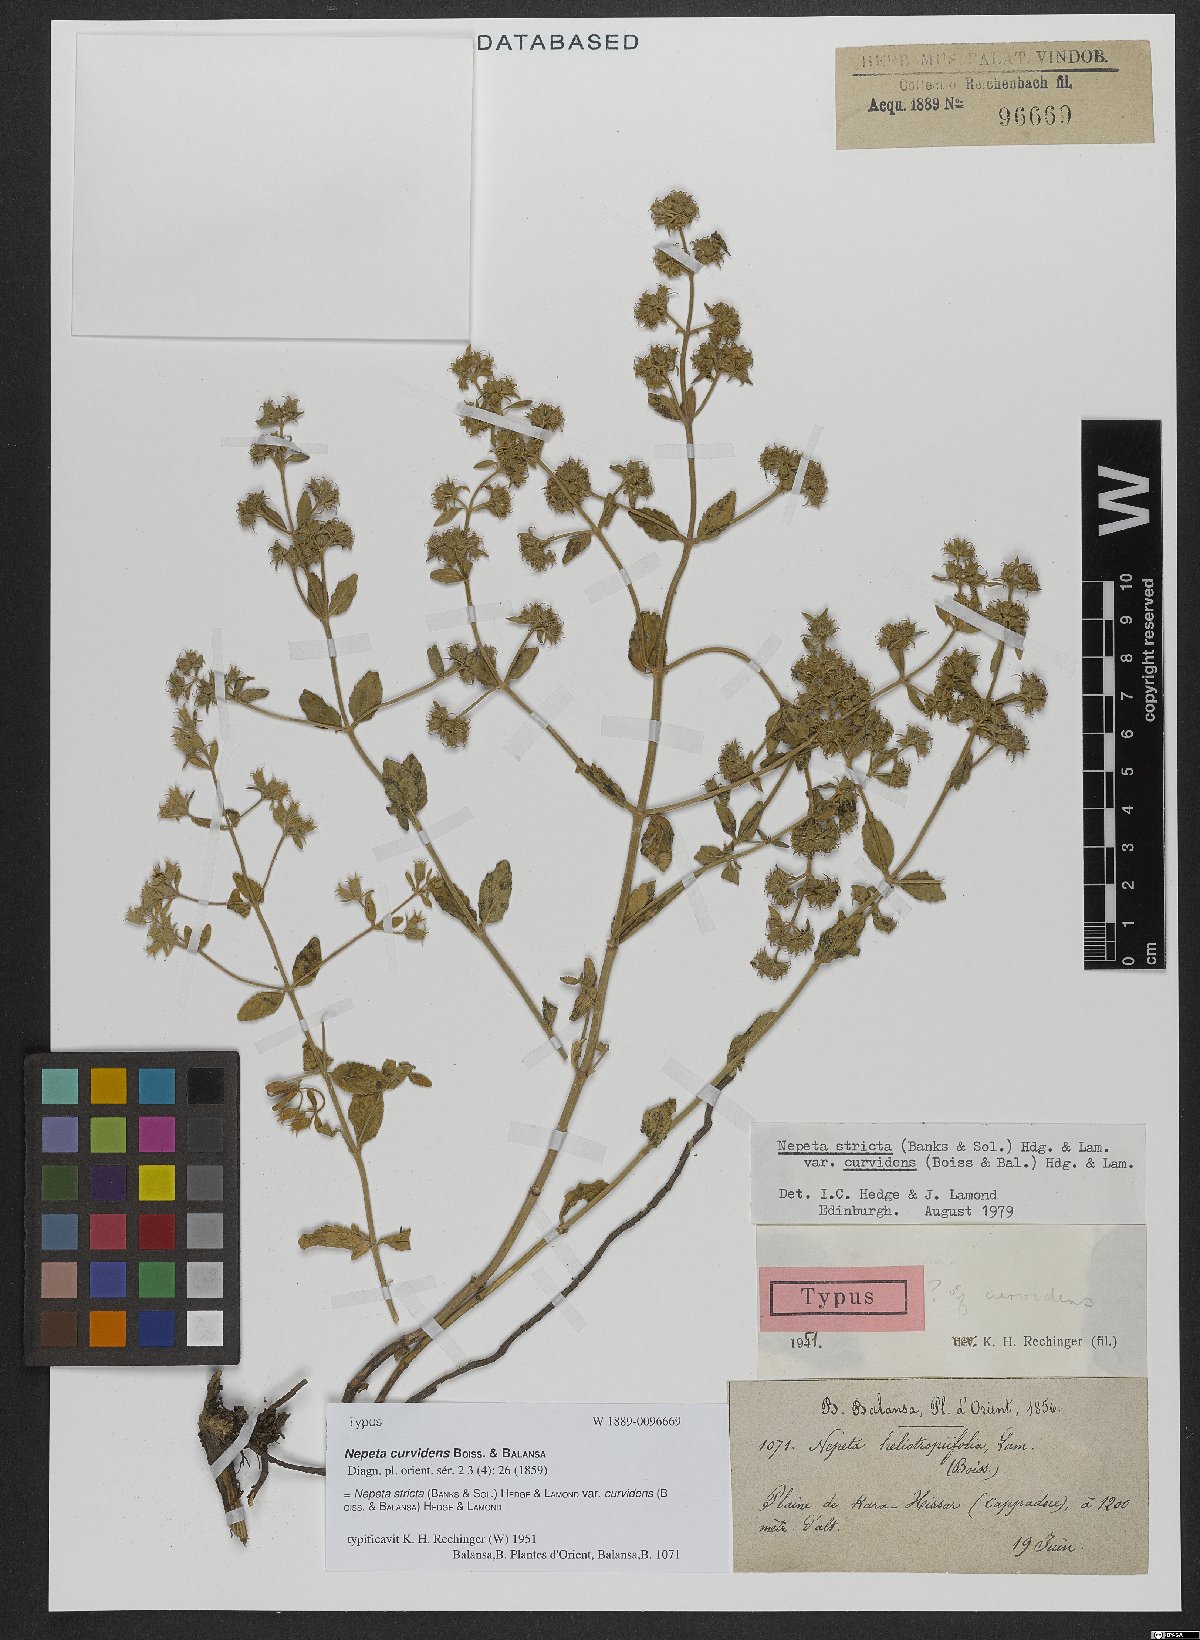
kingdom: Plantae
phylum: Tracheophyta
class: Magnoliopsida
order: Lamiales
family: Lamiaceae
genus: Nepeta
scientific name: Nepeta stricta
